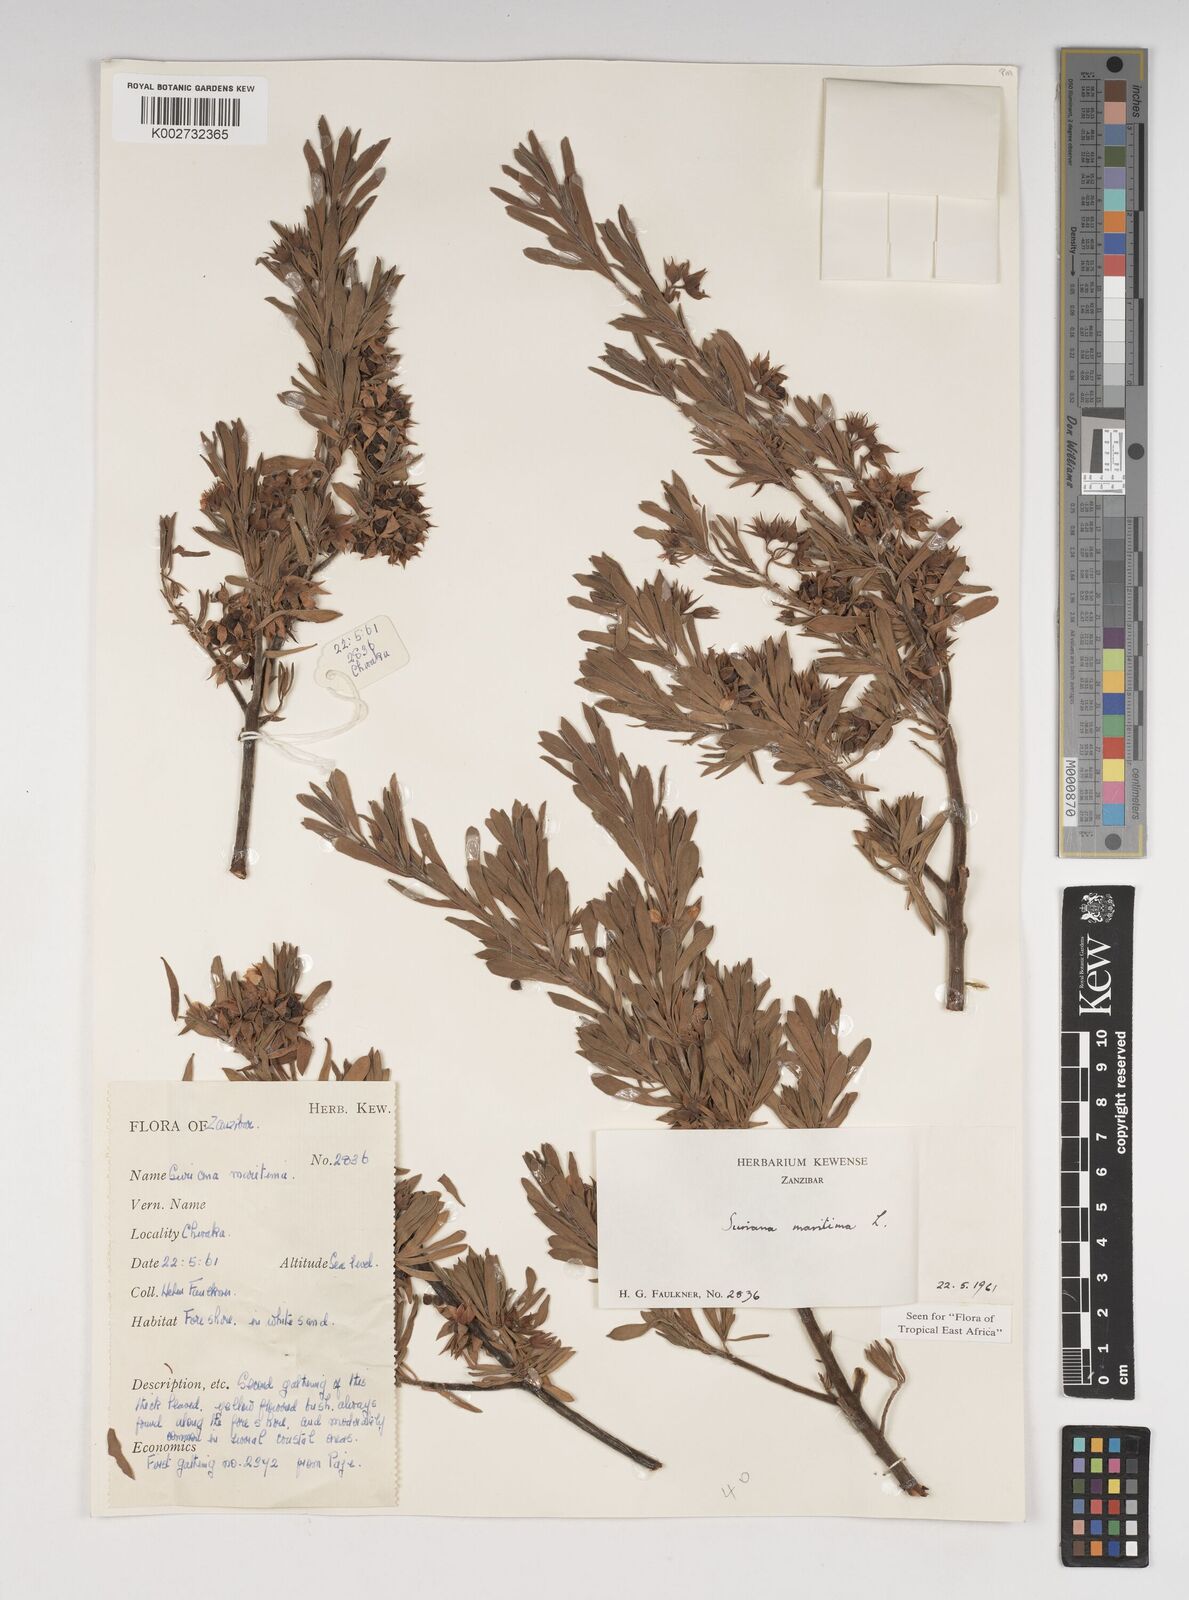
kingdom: Plantae
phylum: Tracheophyta
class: Magnoliopsida
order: Fabales
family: Surianaceae
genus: Suriana
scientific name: Suriana maritima
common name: Bay-cedar
